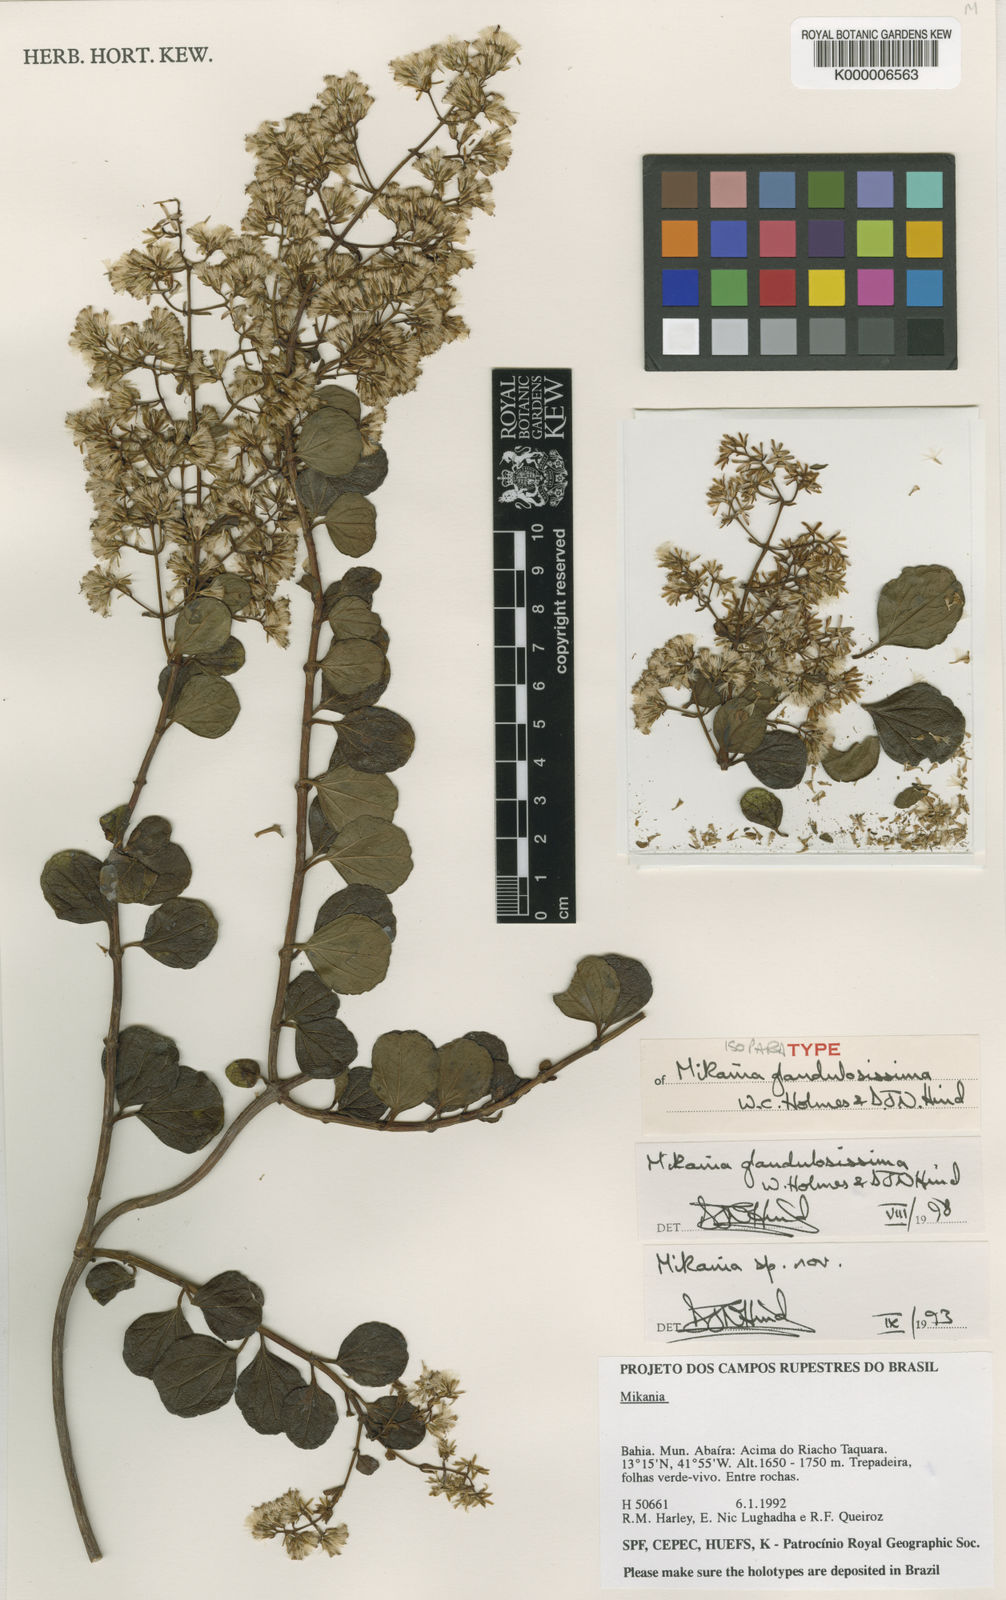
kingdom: Plantae
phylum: Tracheophyta
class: Magnoliopsida
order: Asterales
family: Asteraceae
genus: Mikania
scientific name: Mikania glandulosissima
